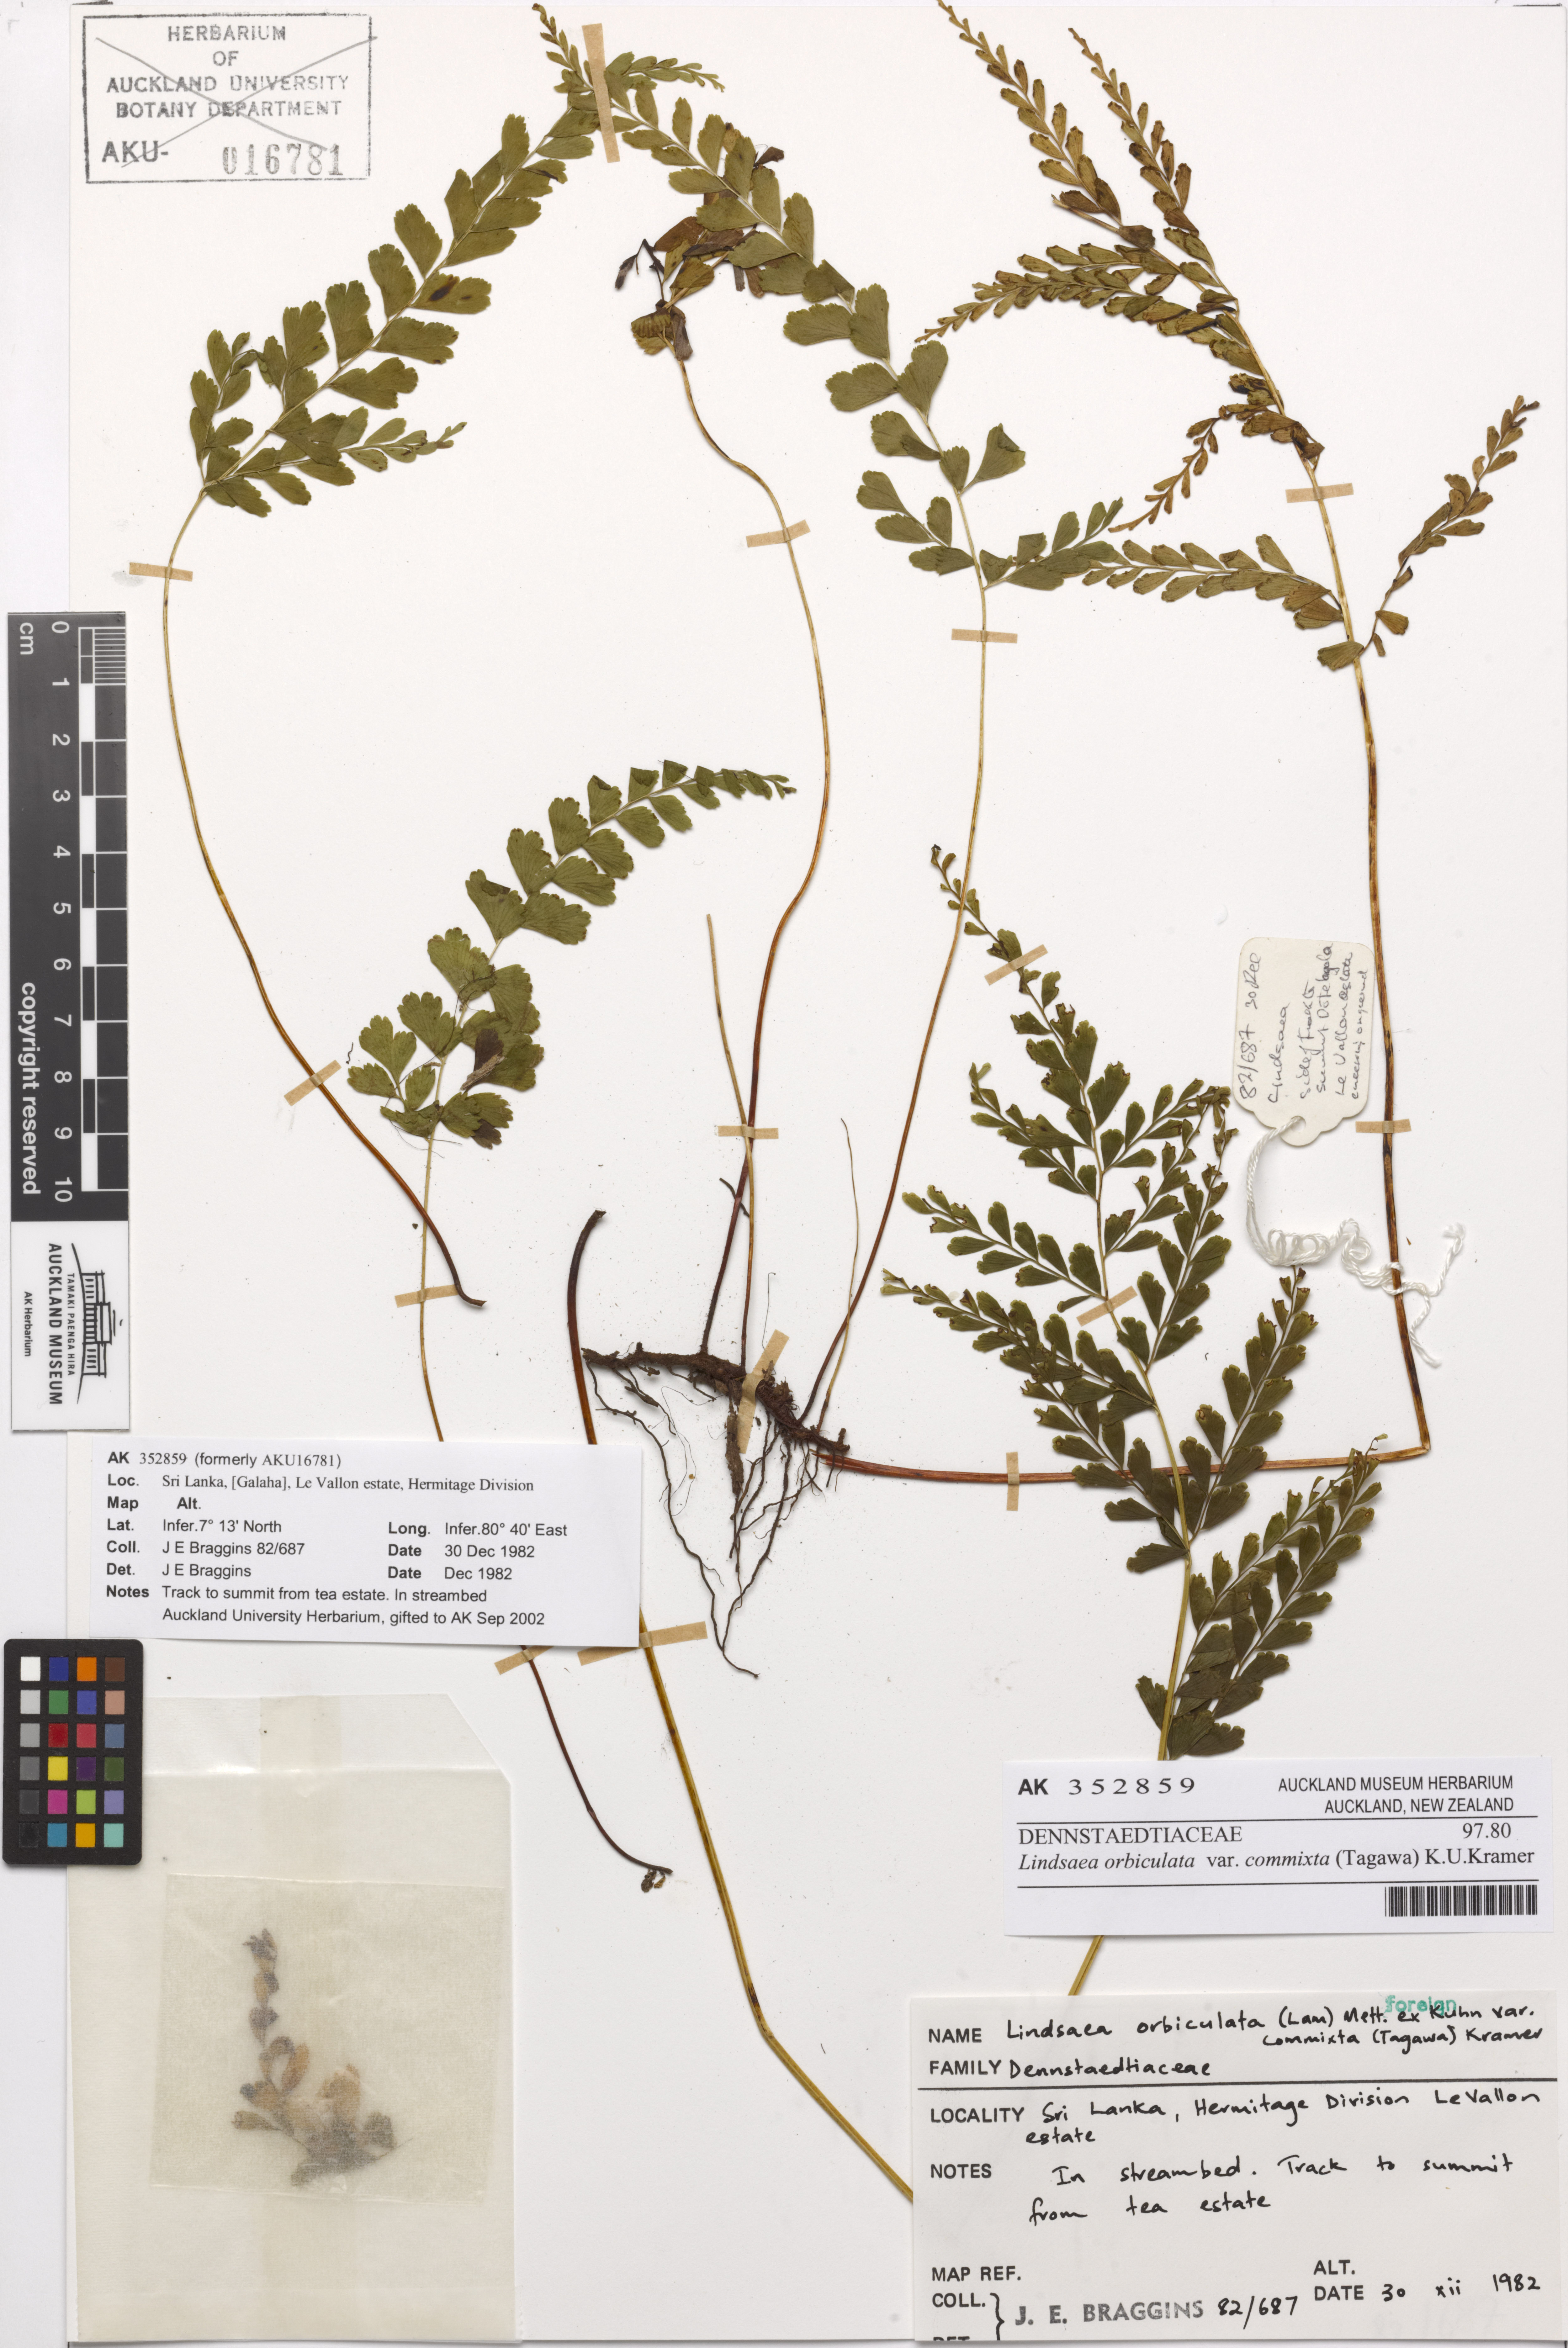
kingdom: Plantae
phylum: Tracheophyta
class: Polypodiopsida
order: Polypodiales
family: Lindsaeaceae
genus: Lindsaea
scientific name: Lindsaea bonii
